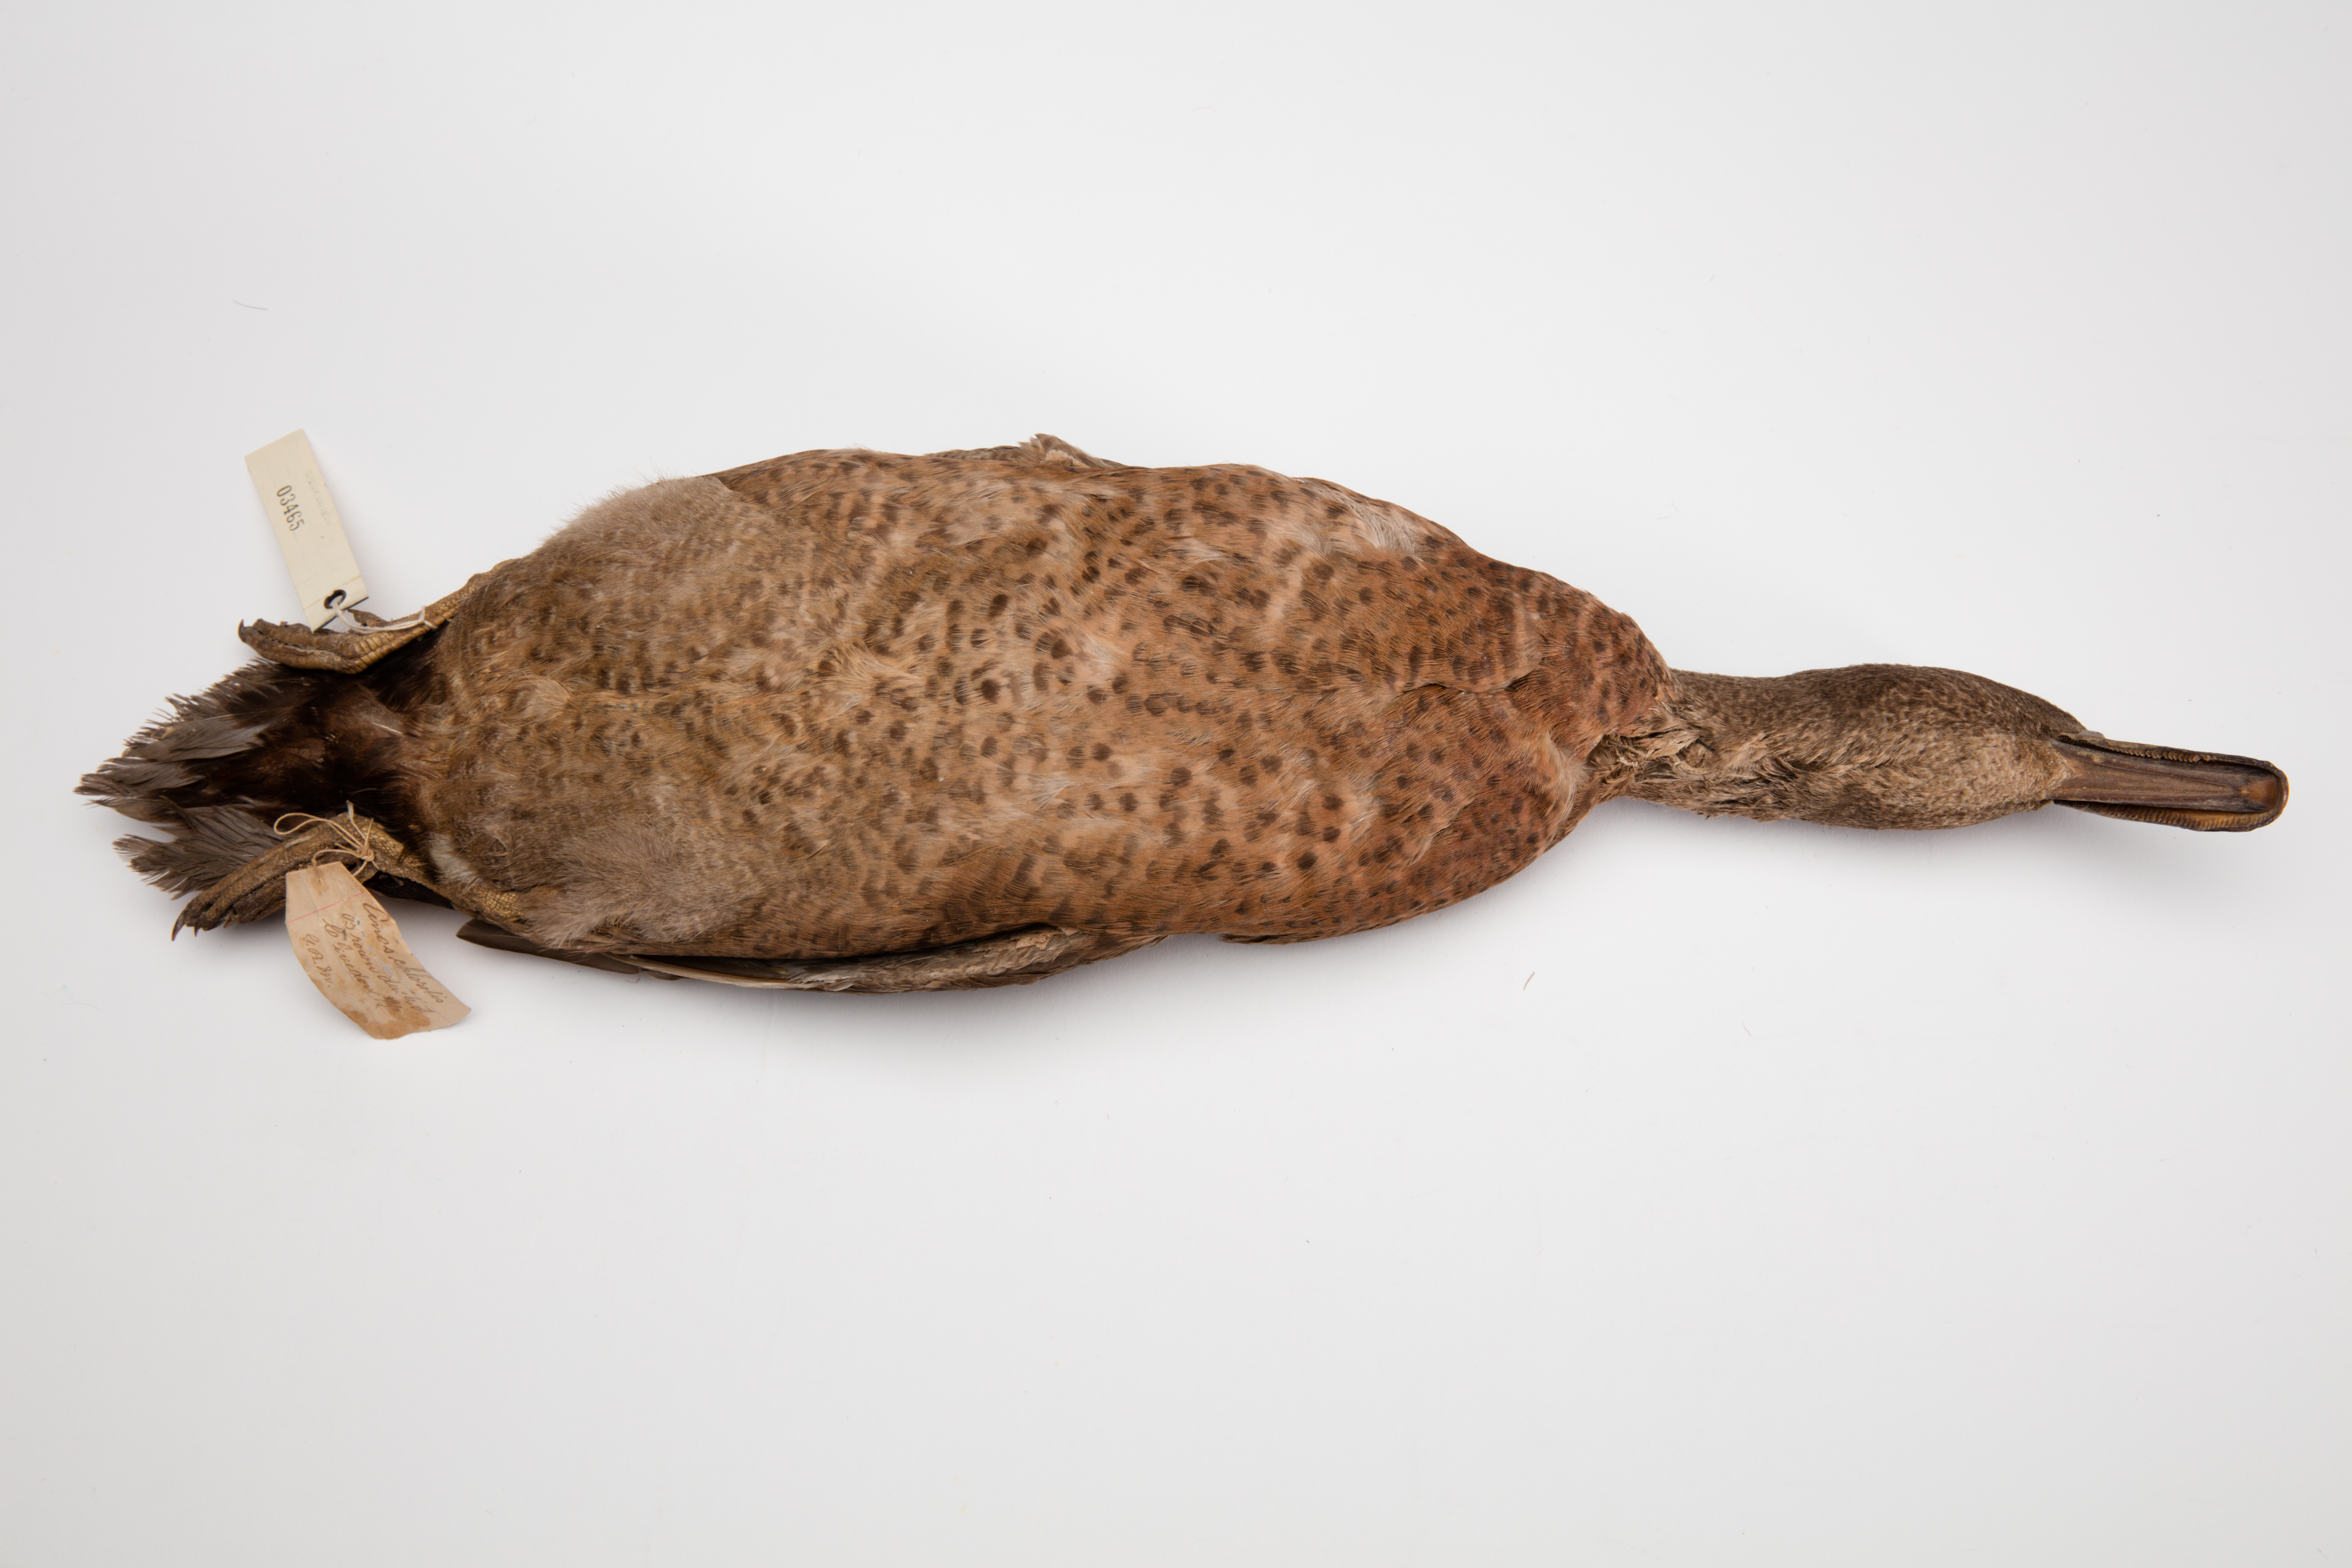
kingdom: Animalia
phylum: Chordata
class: Aves
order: Anseriformes
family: Anatidae
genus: Anas
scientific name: Anas chlorotis
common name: Brown teal
